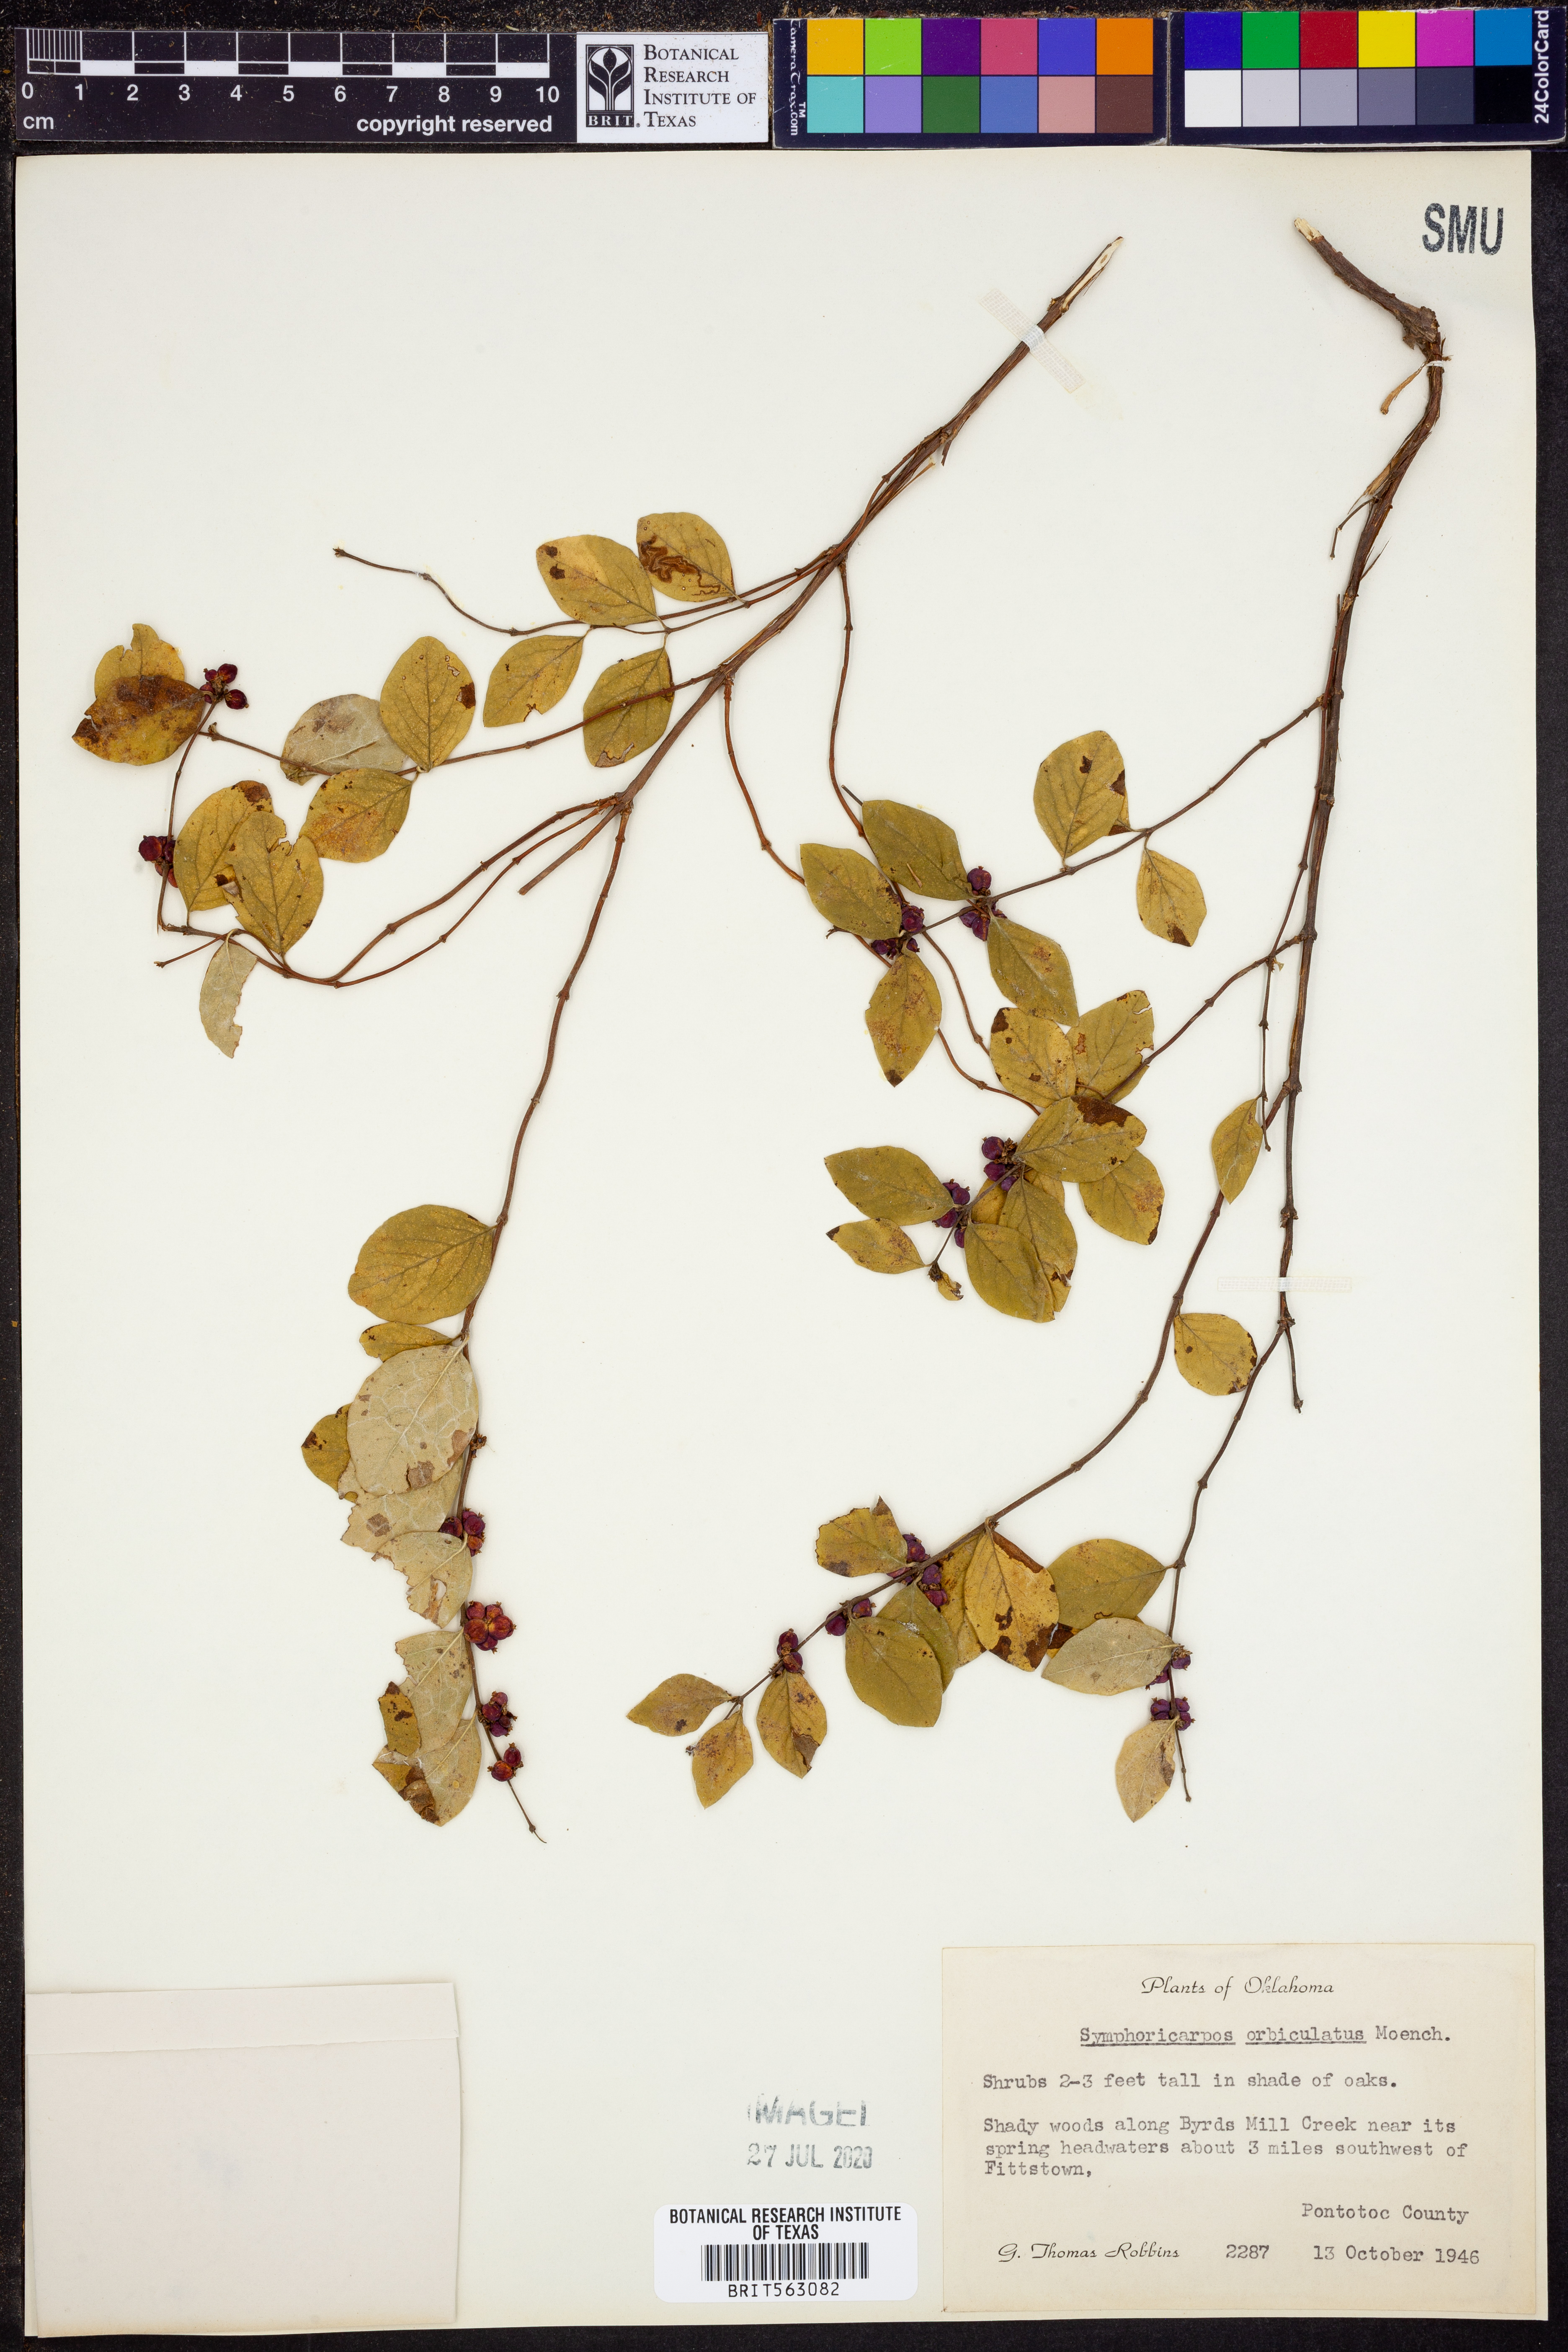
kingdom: Plantae
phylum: Tracheophyta
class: Magnoliopsida
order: Dipsacales
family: Caprifoliaceae
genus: Symphoricarpos
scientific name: Symphoricarpos orbiculatus
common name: Coralberry
